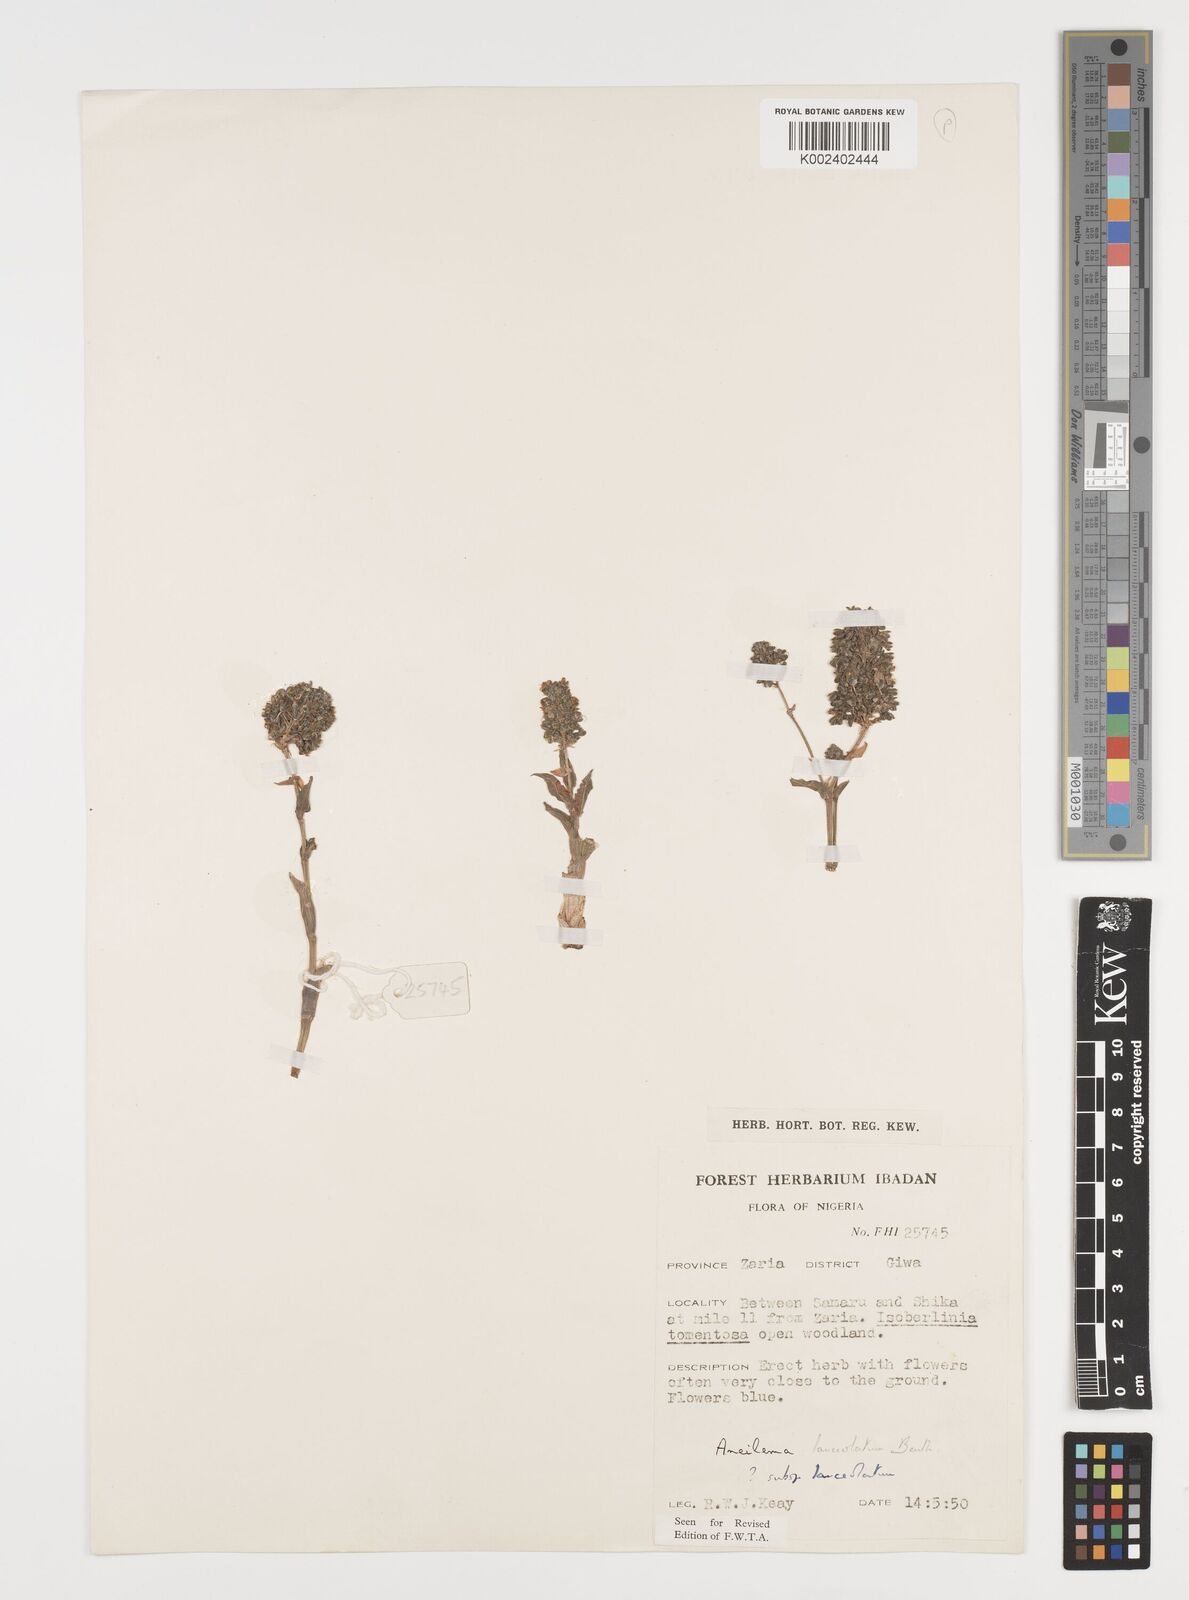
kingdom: Plantae
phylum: Tracheophyta
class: Liliopsida
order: Commelinales
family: Commelinaceae
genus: Aneilema
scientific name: Aneilema lanceolatum
